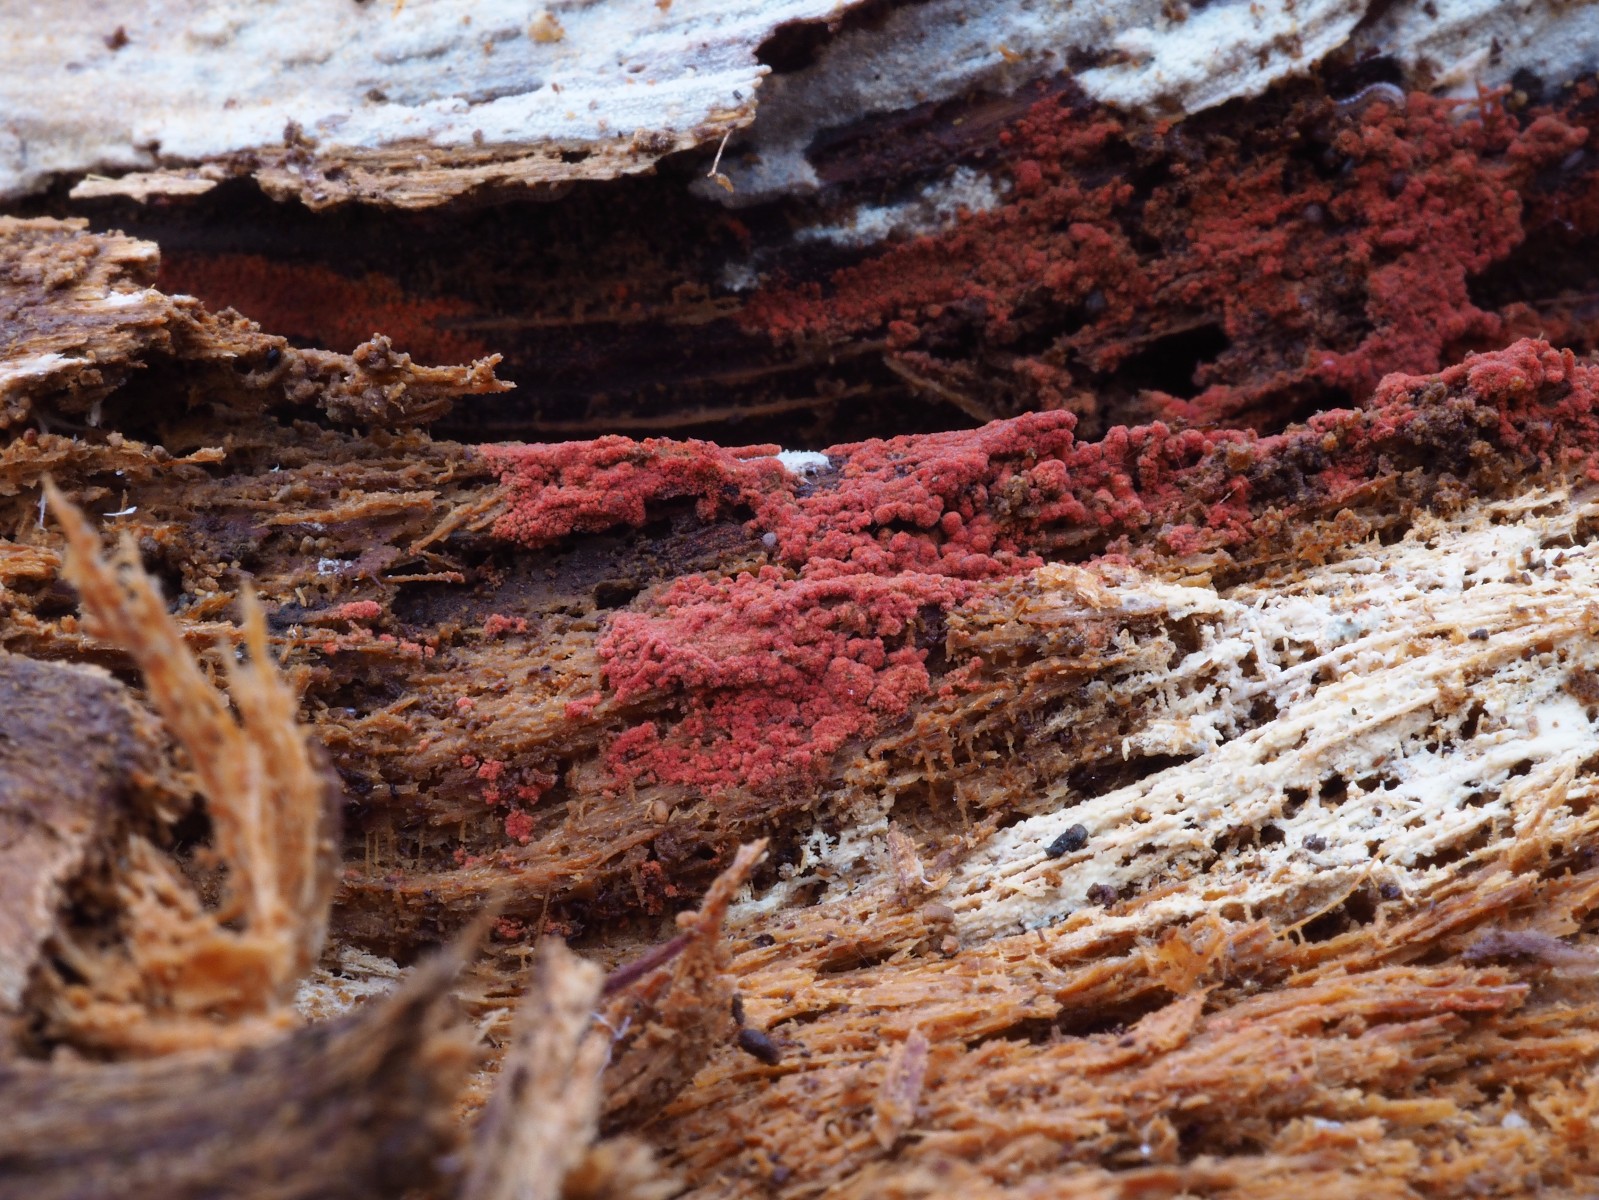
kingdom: Fungi
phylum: Basidiomycota
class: Agaricomycetes
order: Thelephorales
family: Thelephoraceae
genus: Tomentella
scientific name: Tomentella lateritia
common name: teglrød frynsehinde
